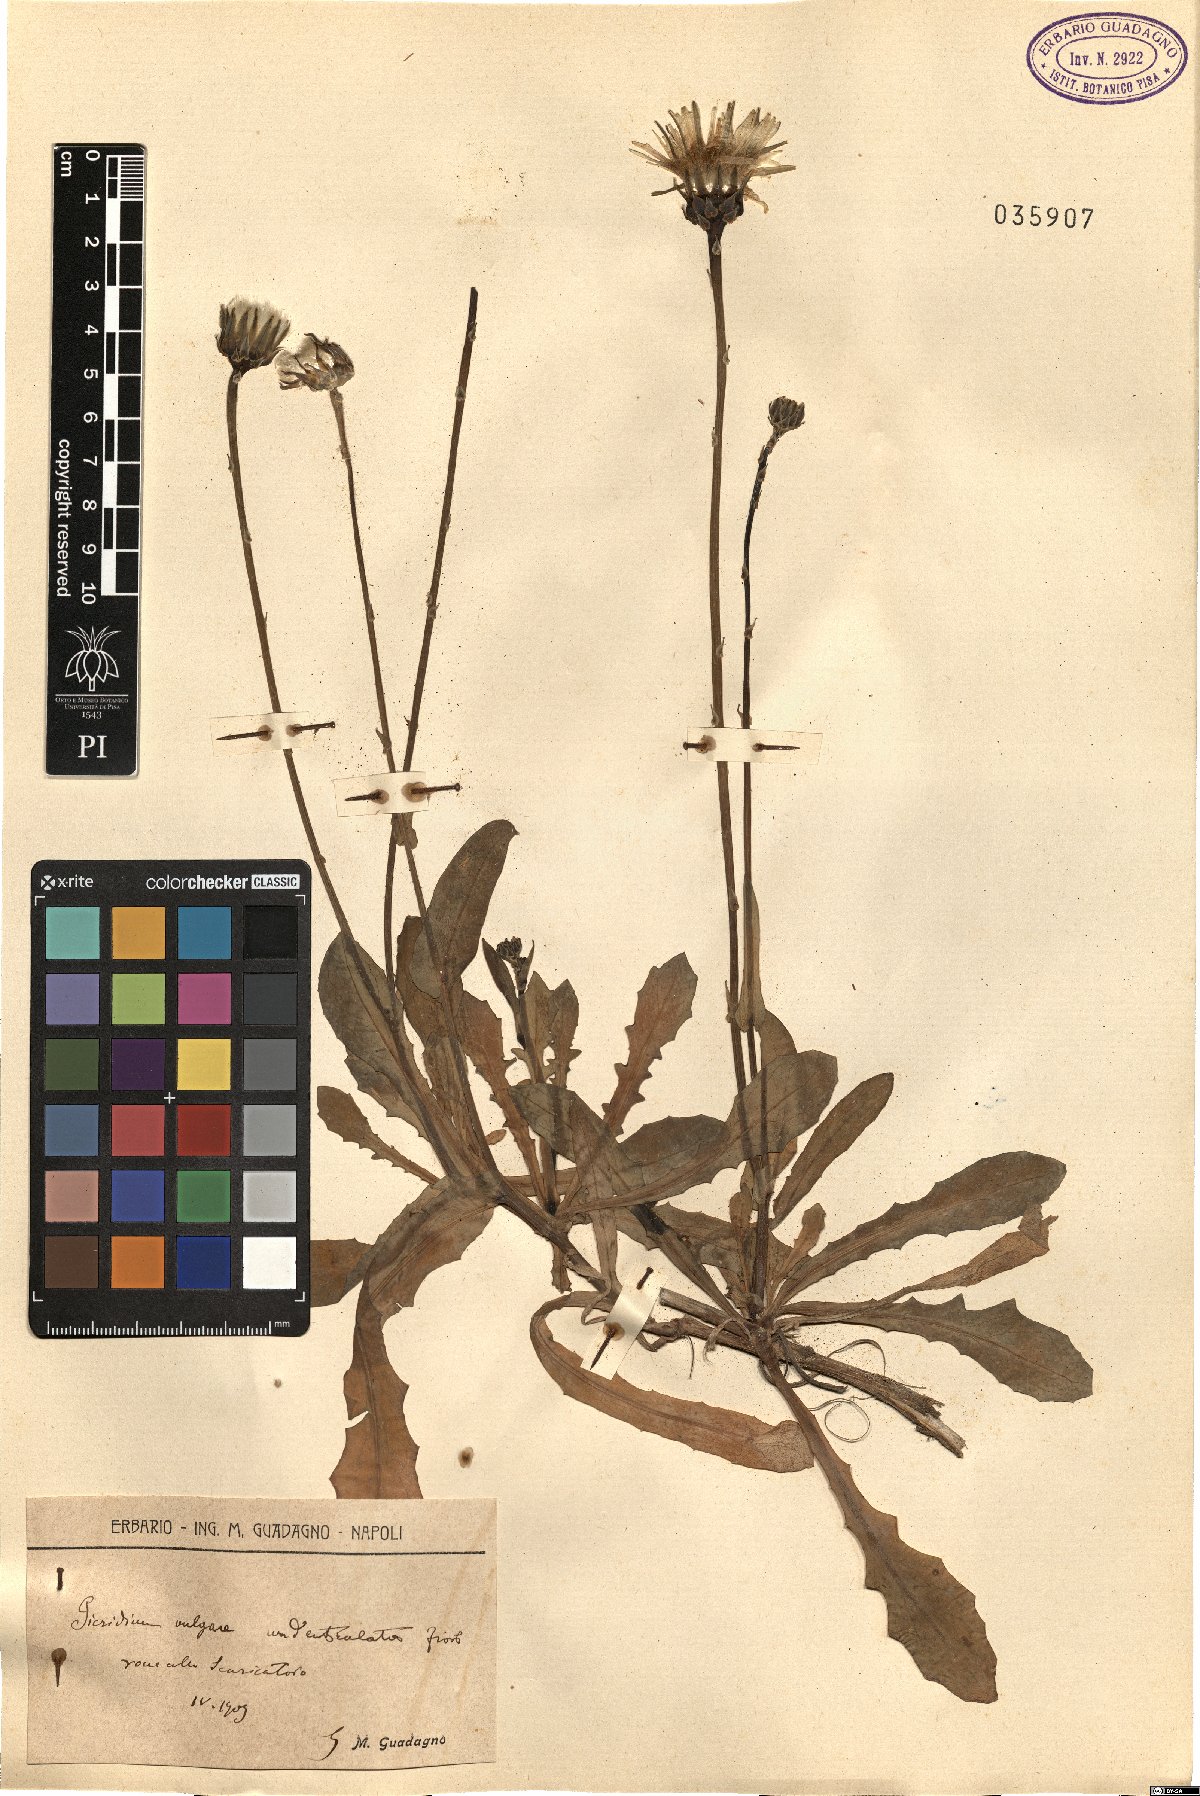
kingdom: Plantae
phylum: Tracheophyta
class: Magnoliopsida
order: Asterales
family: Asteraceae
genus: Reichardia
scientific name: Reichardia picroides
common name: Common brighteyes
